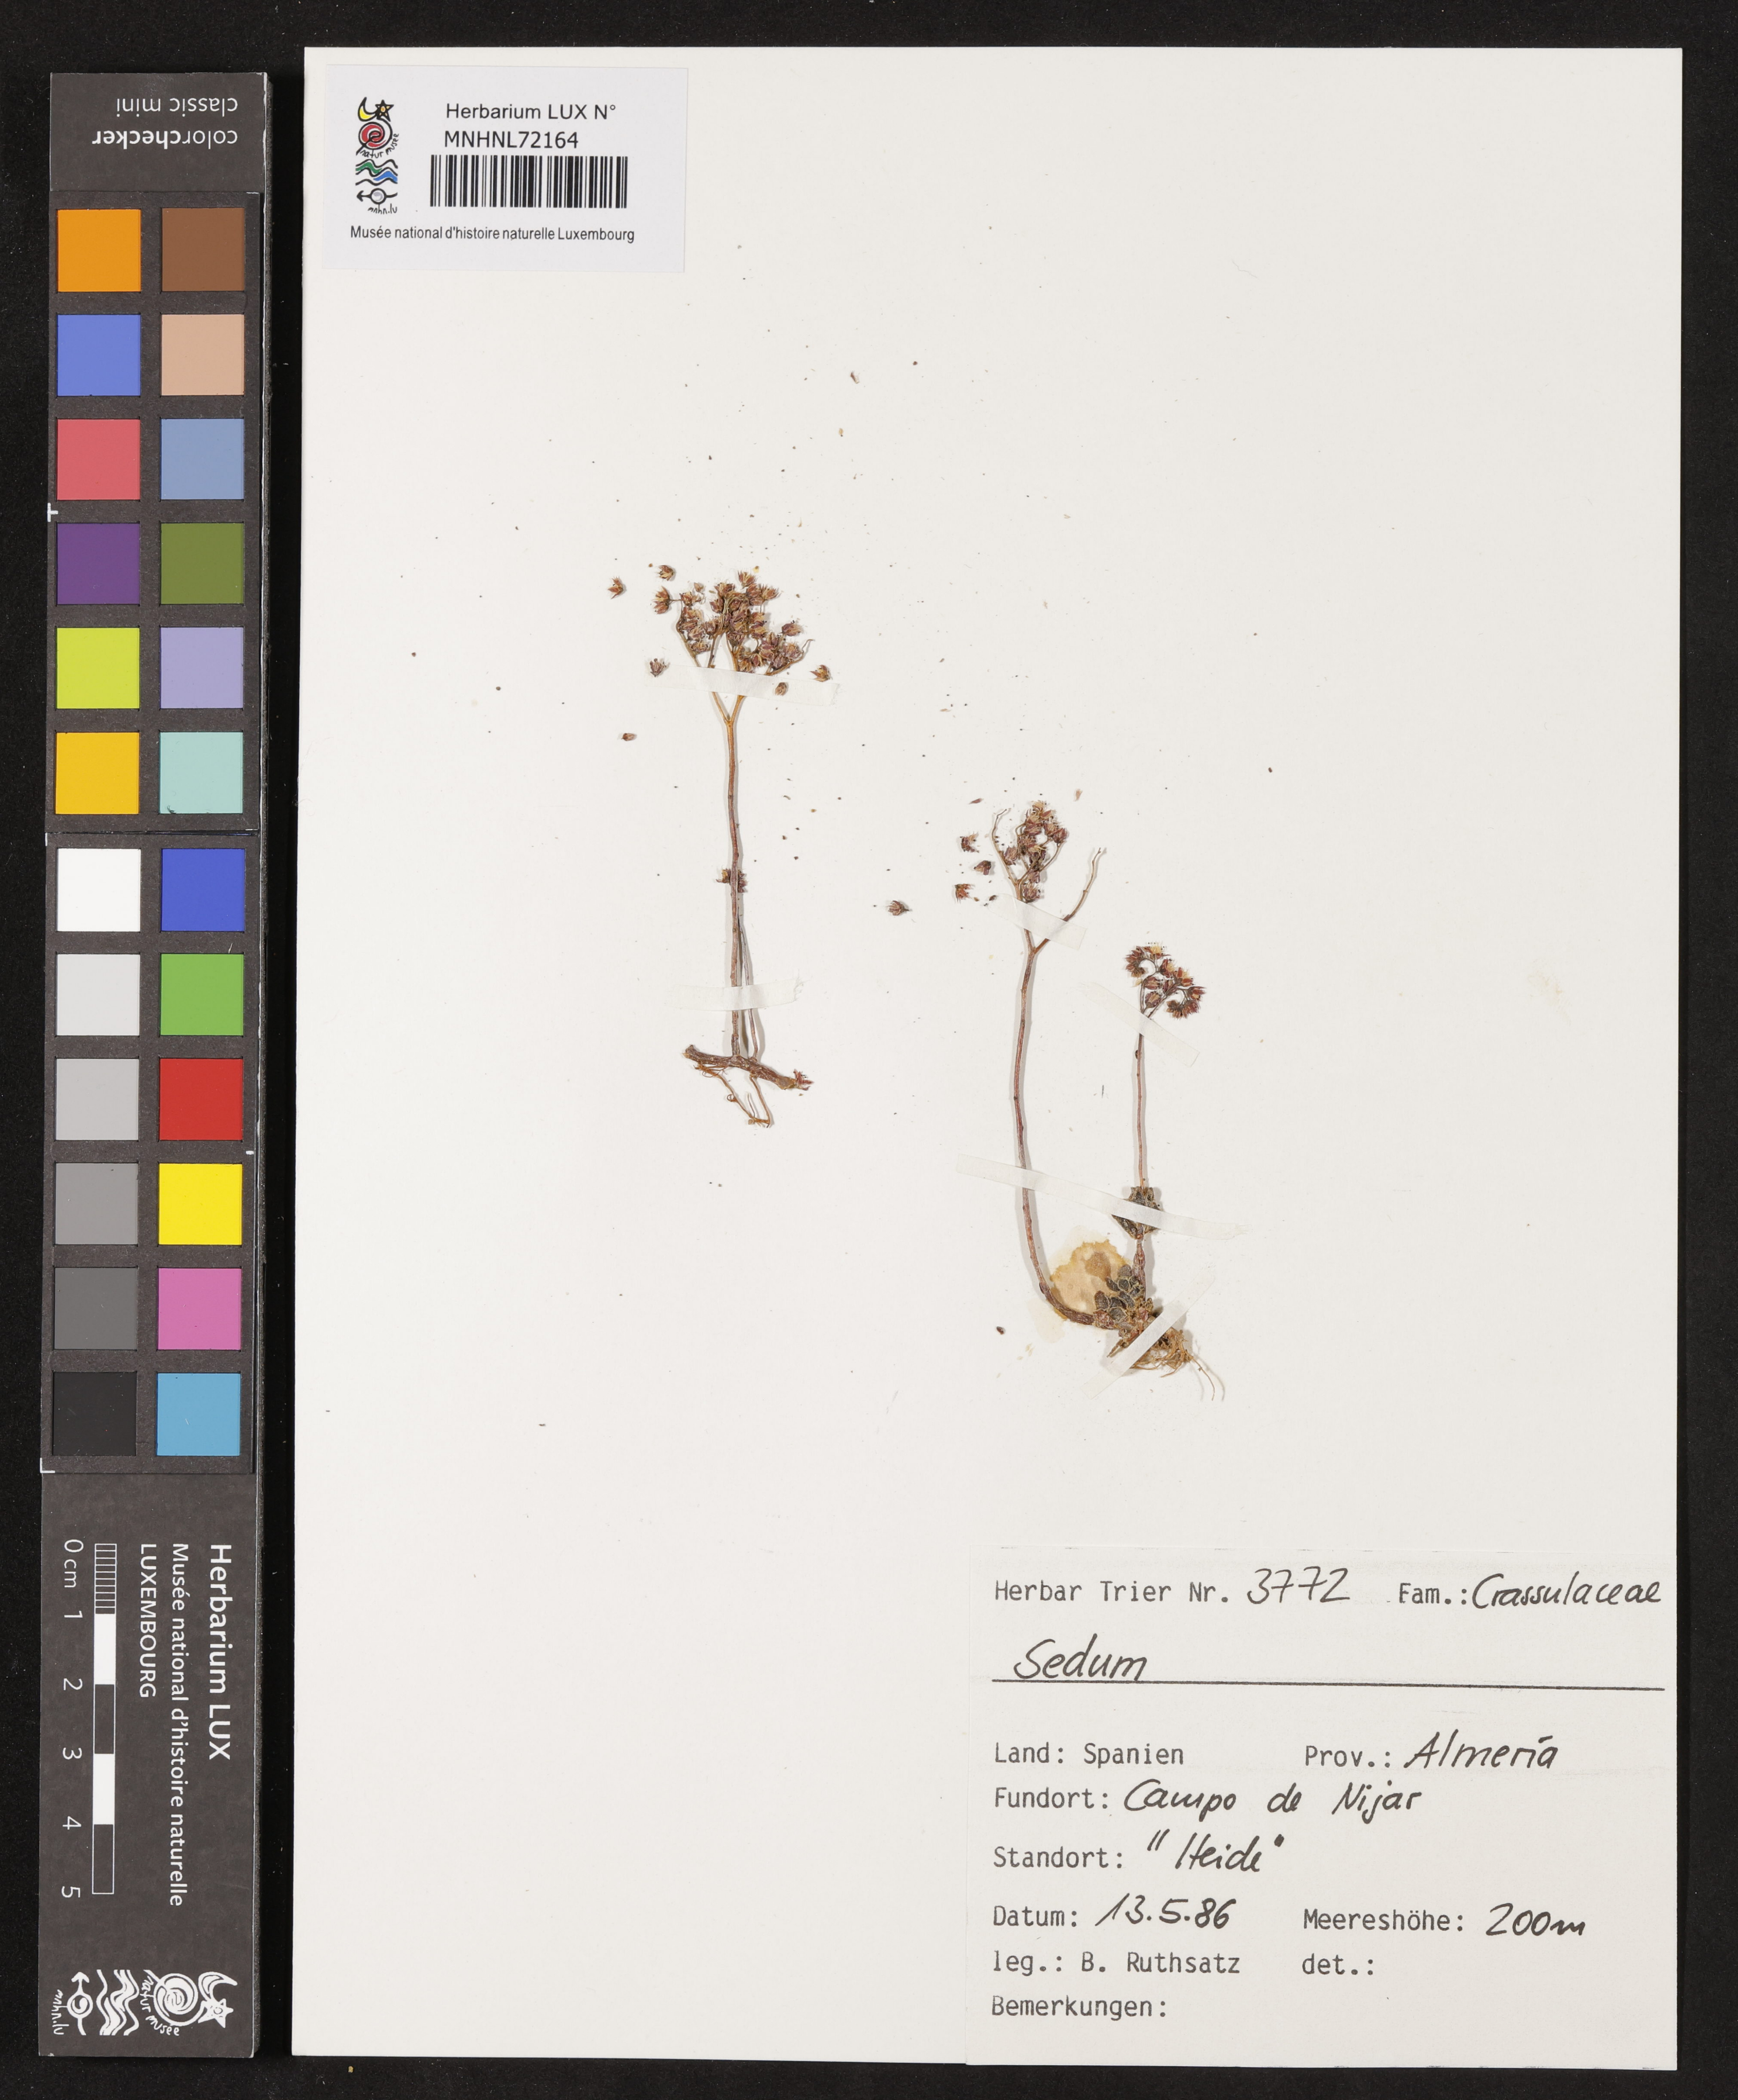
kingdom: Plantae
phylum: Tracheophyta
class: Magnoliopsida
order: Saxifragales
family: Crassulaceae
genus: Sedum
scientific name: Sedum
